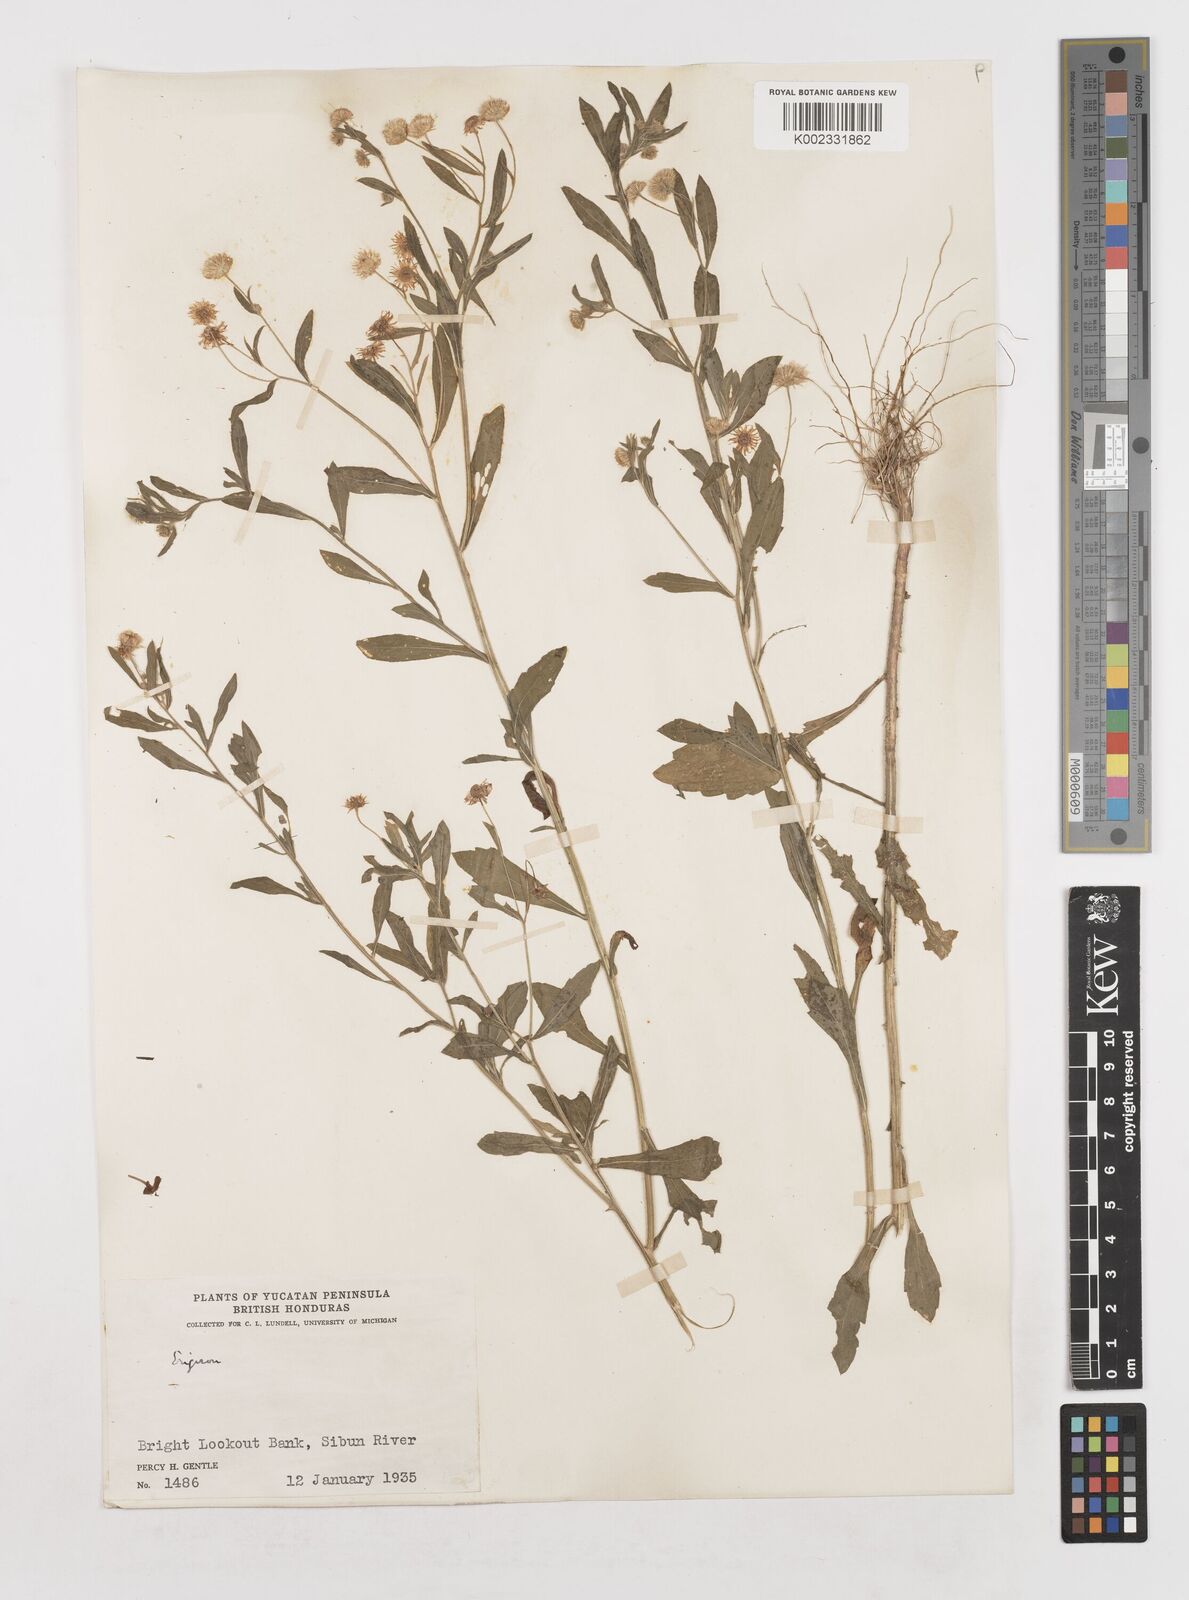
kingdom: Plantae
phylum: Tracheophyta
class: Magnoliopsida
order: Asterales
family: Asteraceae
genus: Erigeron
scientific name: Erigeron laevigatus
